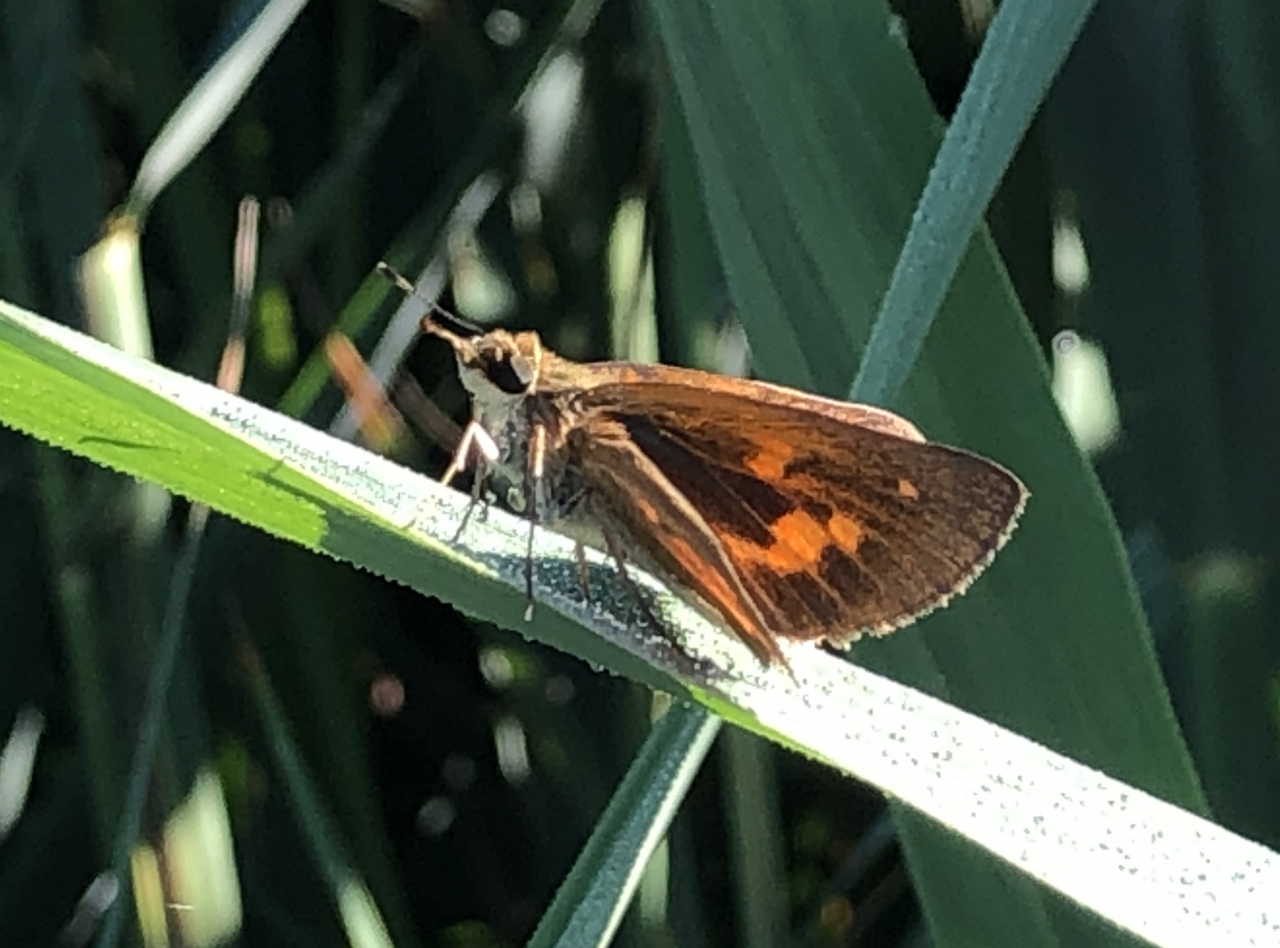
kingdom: Animalia
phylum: Arthropoda
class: Insecta
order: Lepidoptera
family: Hesperiidae
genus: Poanes
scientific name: Poanes viator
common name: Broad-winged Skipper
